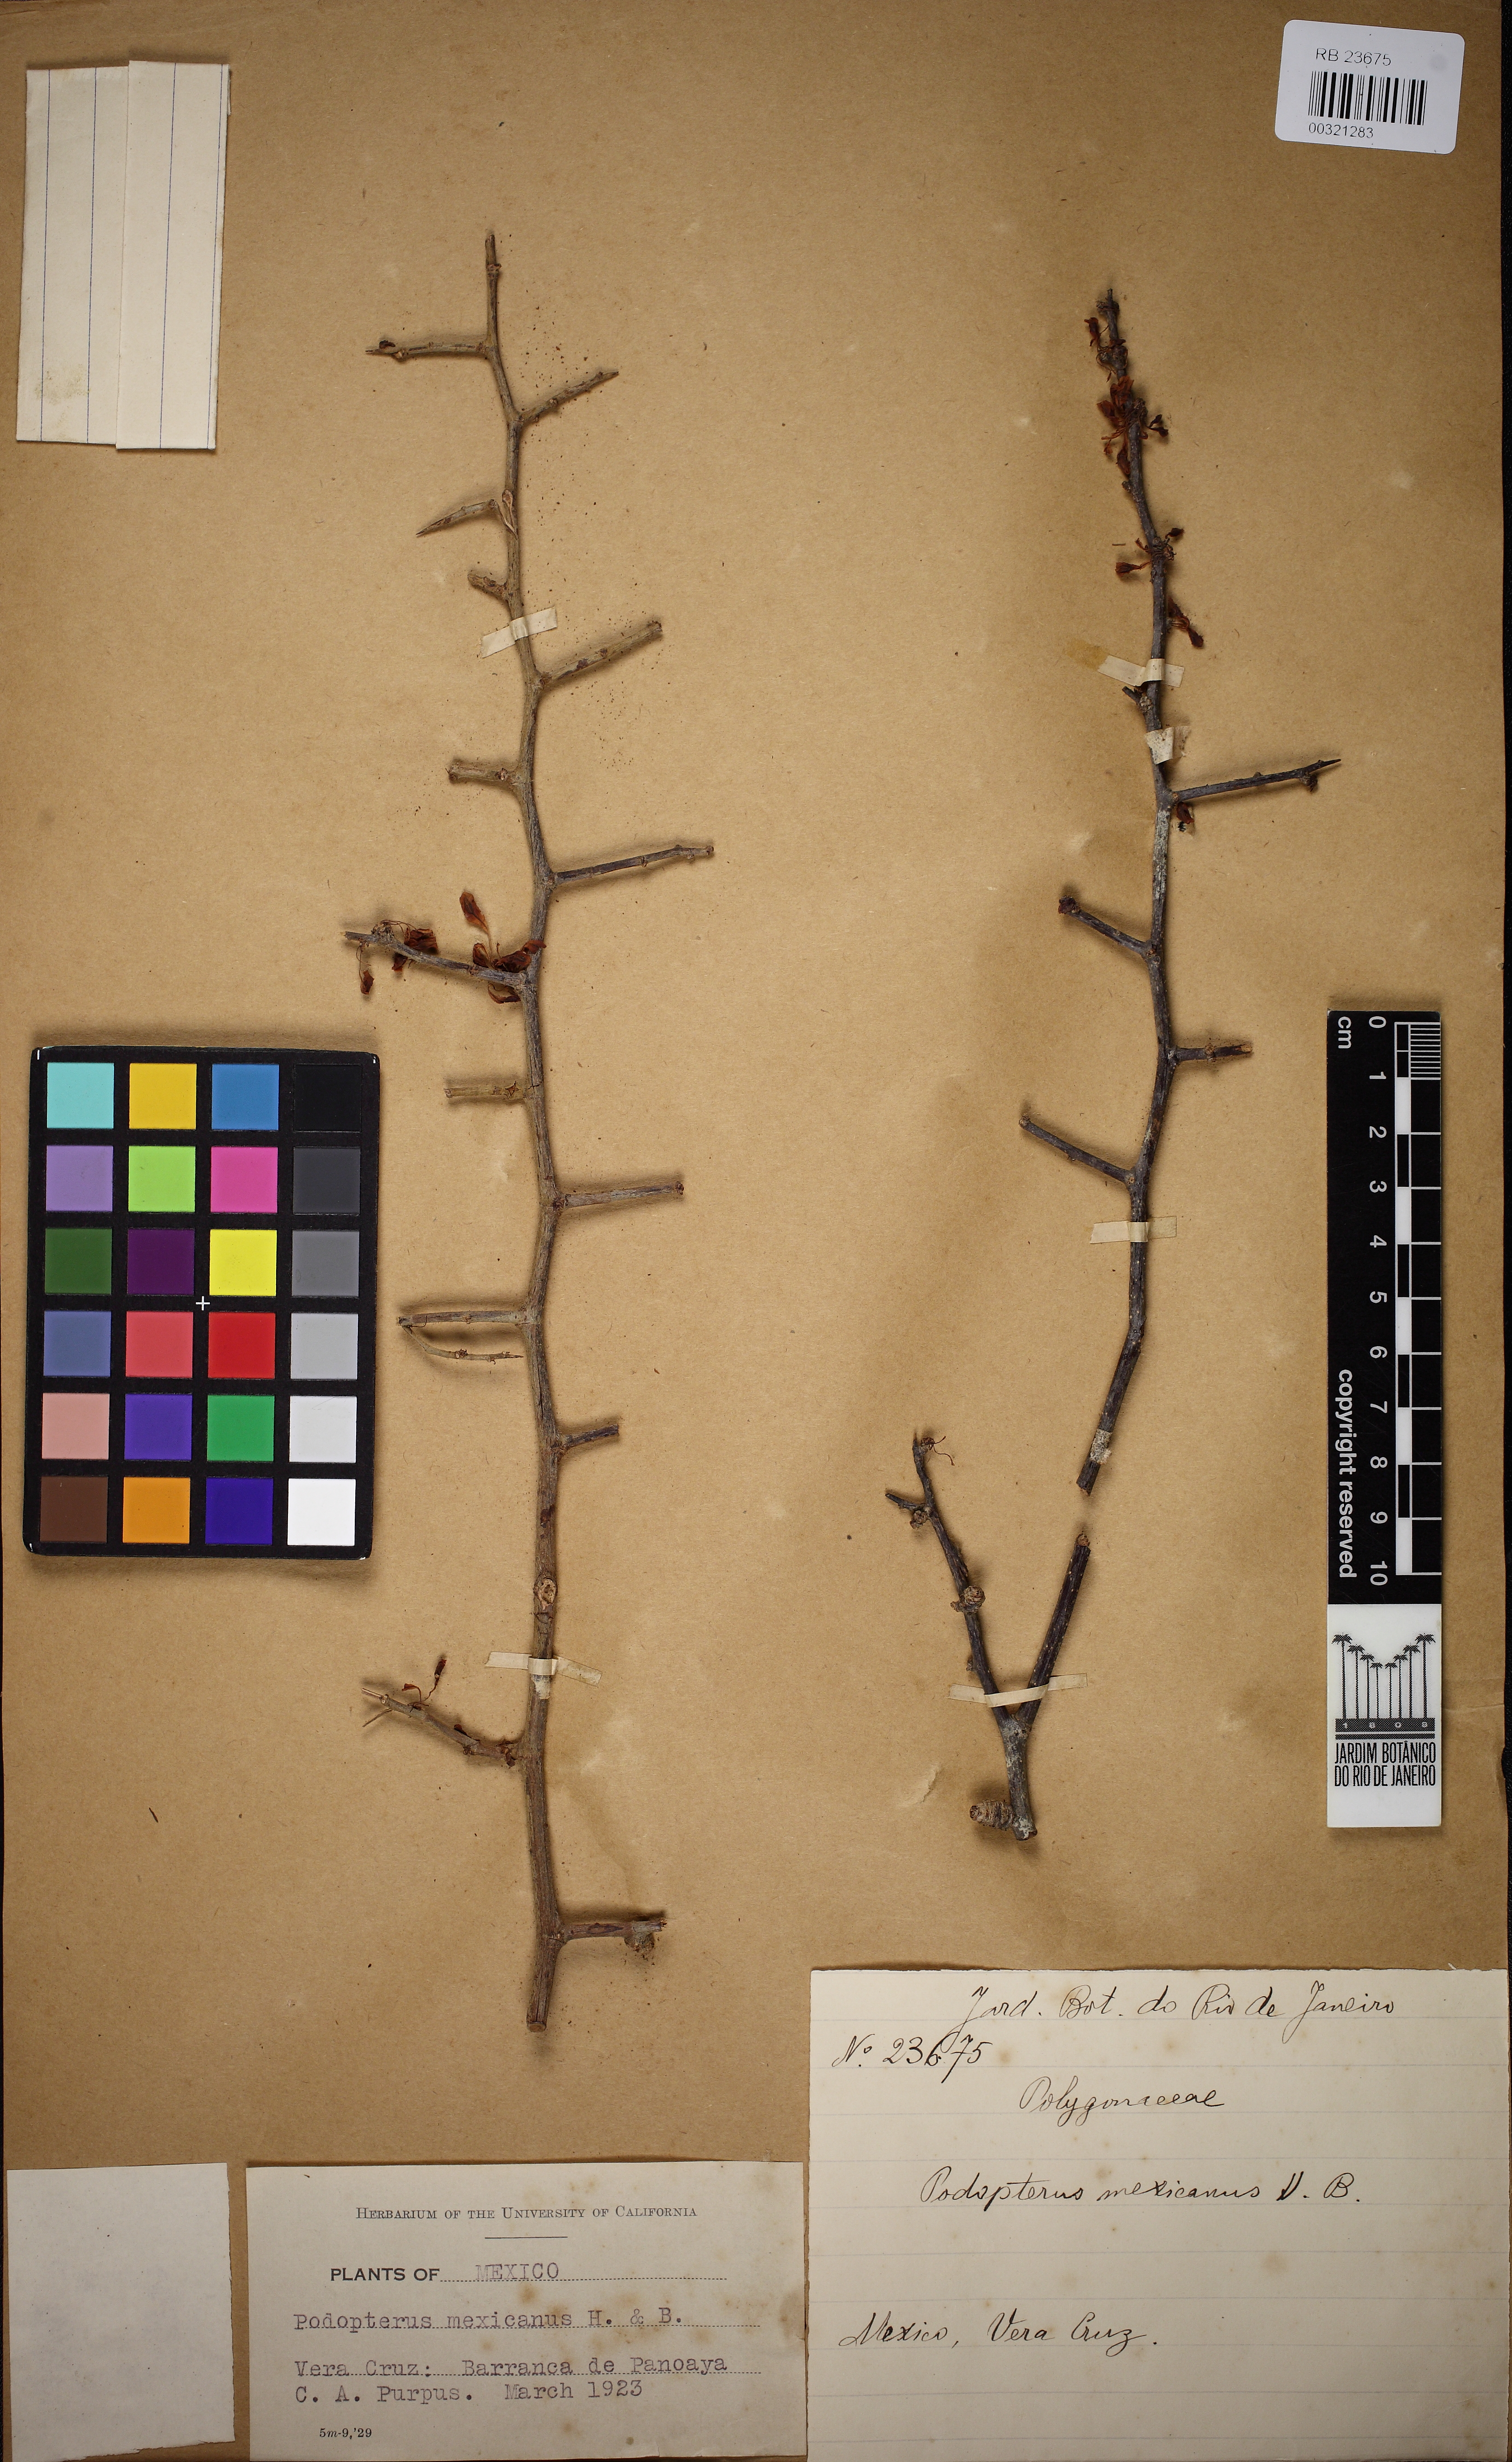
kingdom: Plantae
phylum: Tracheophyta
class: Magnoliopsida
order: Caryophyllales
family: Polygonaceae
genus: Podopterus
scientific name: Podopterus mexicanus
